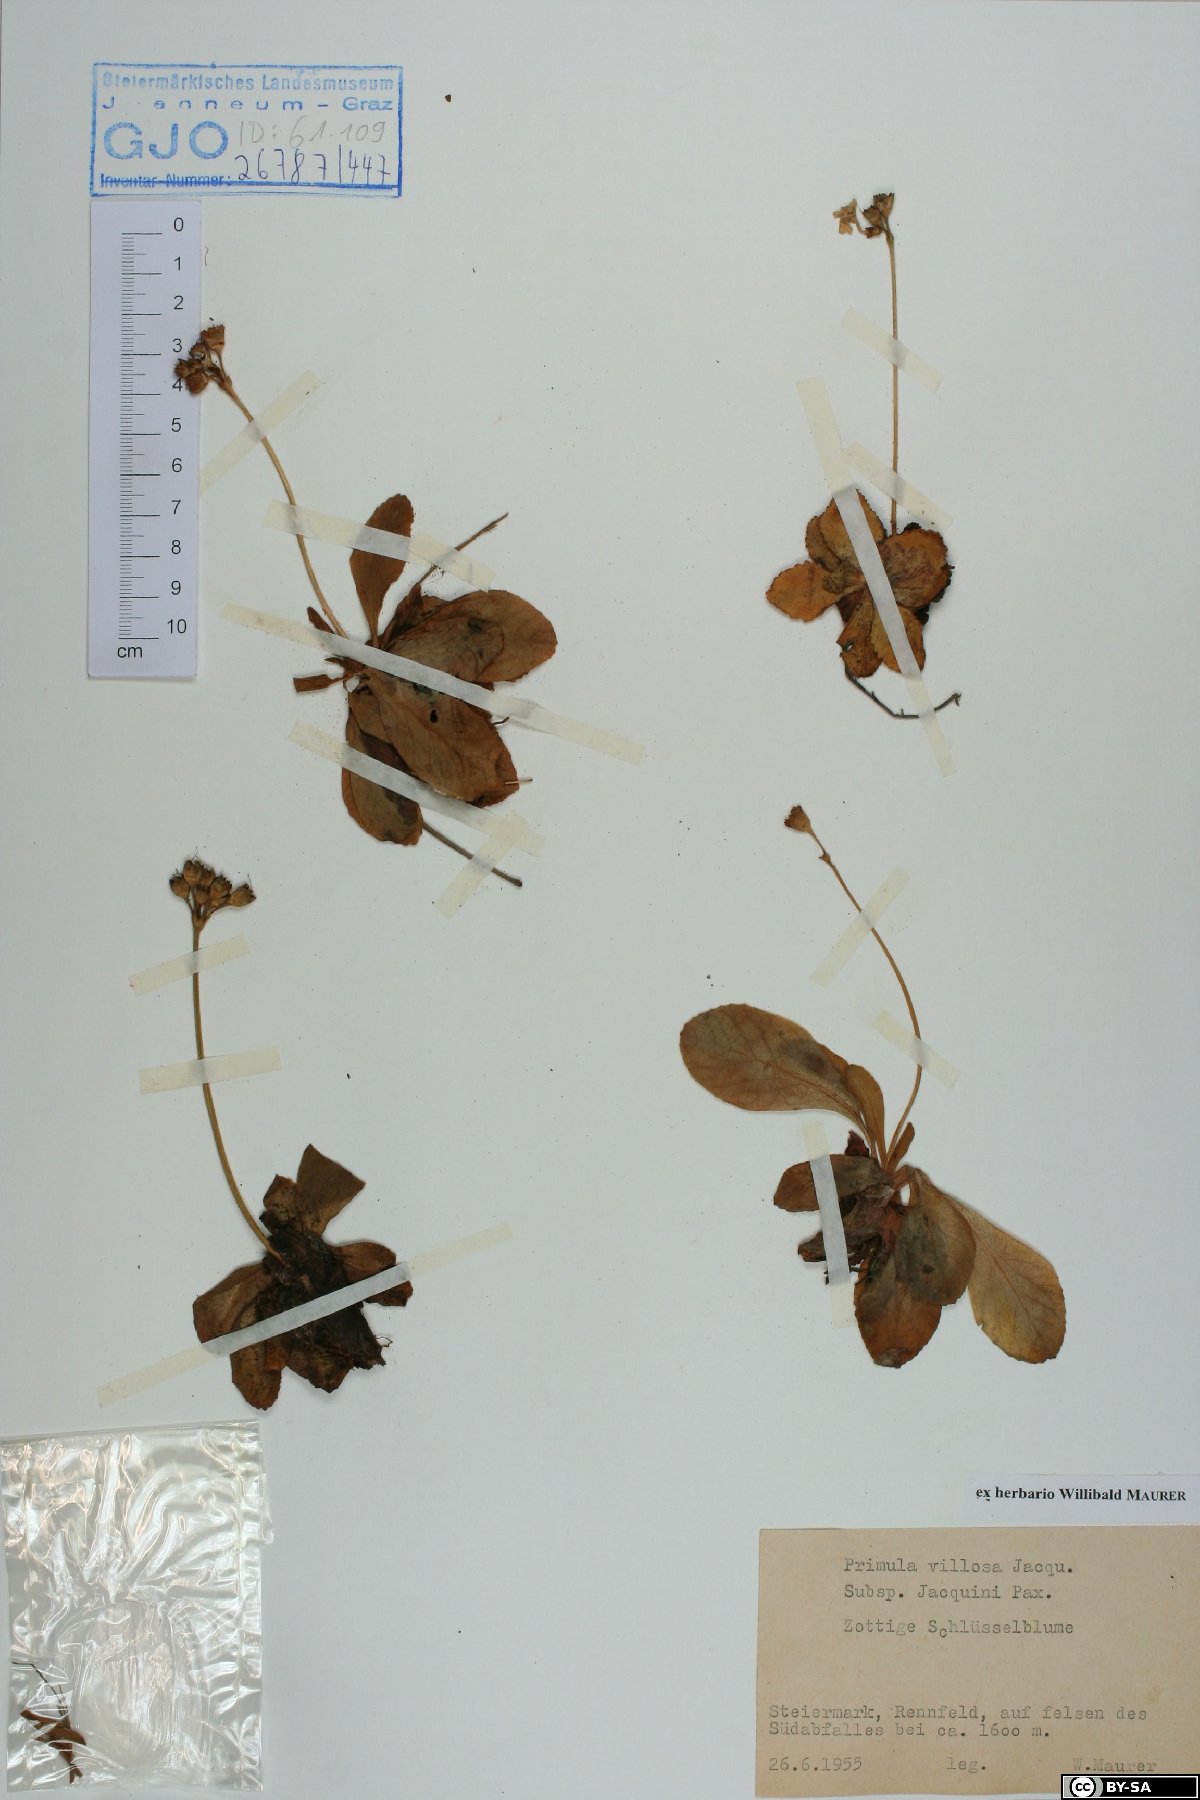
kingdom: Plantae
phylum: Tracheophyta
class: Magnoliopsida
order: Ericales
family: Primulaceae
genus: Primula
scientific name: Primula villosa
